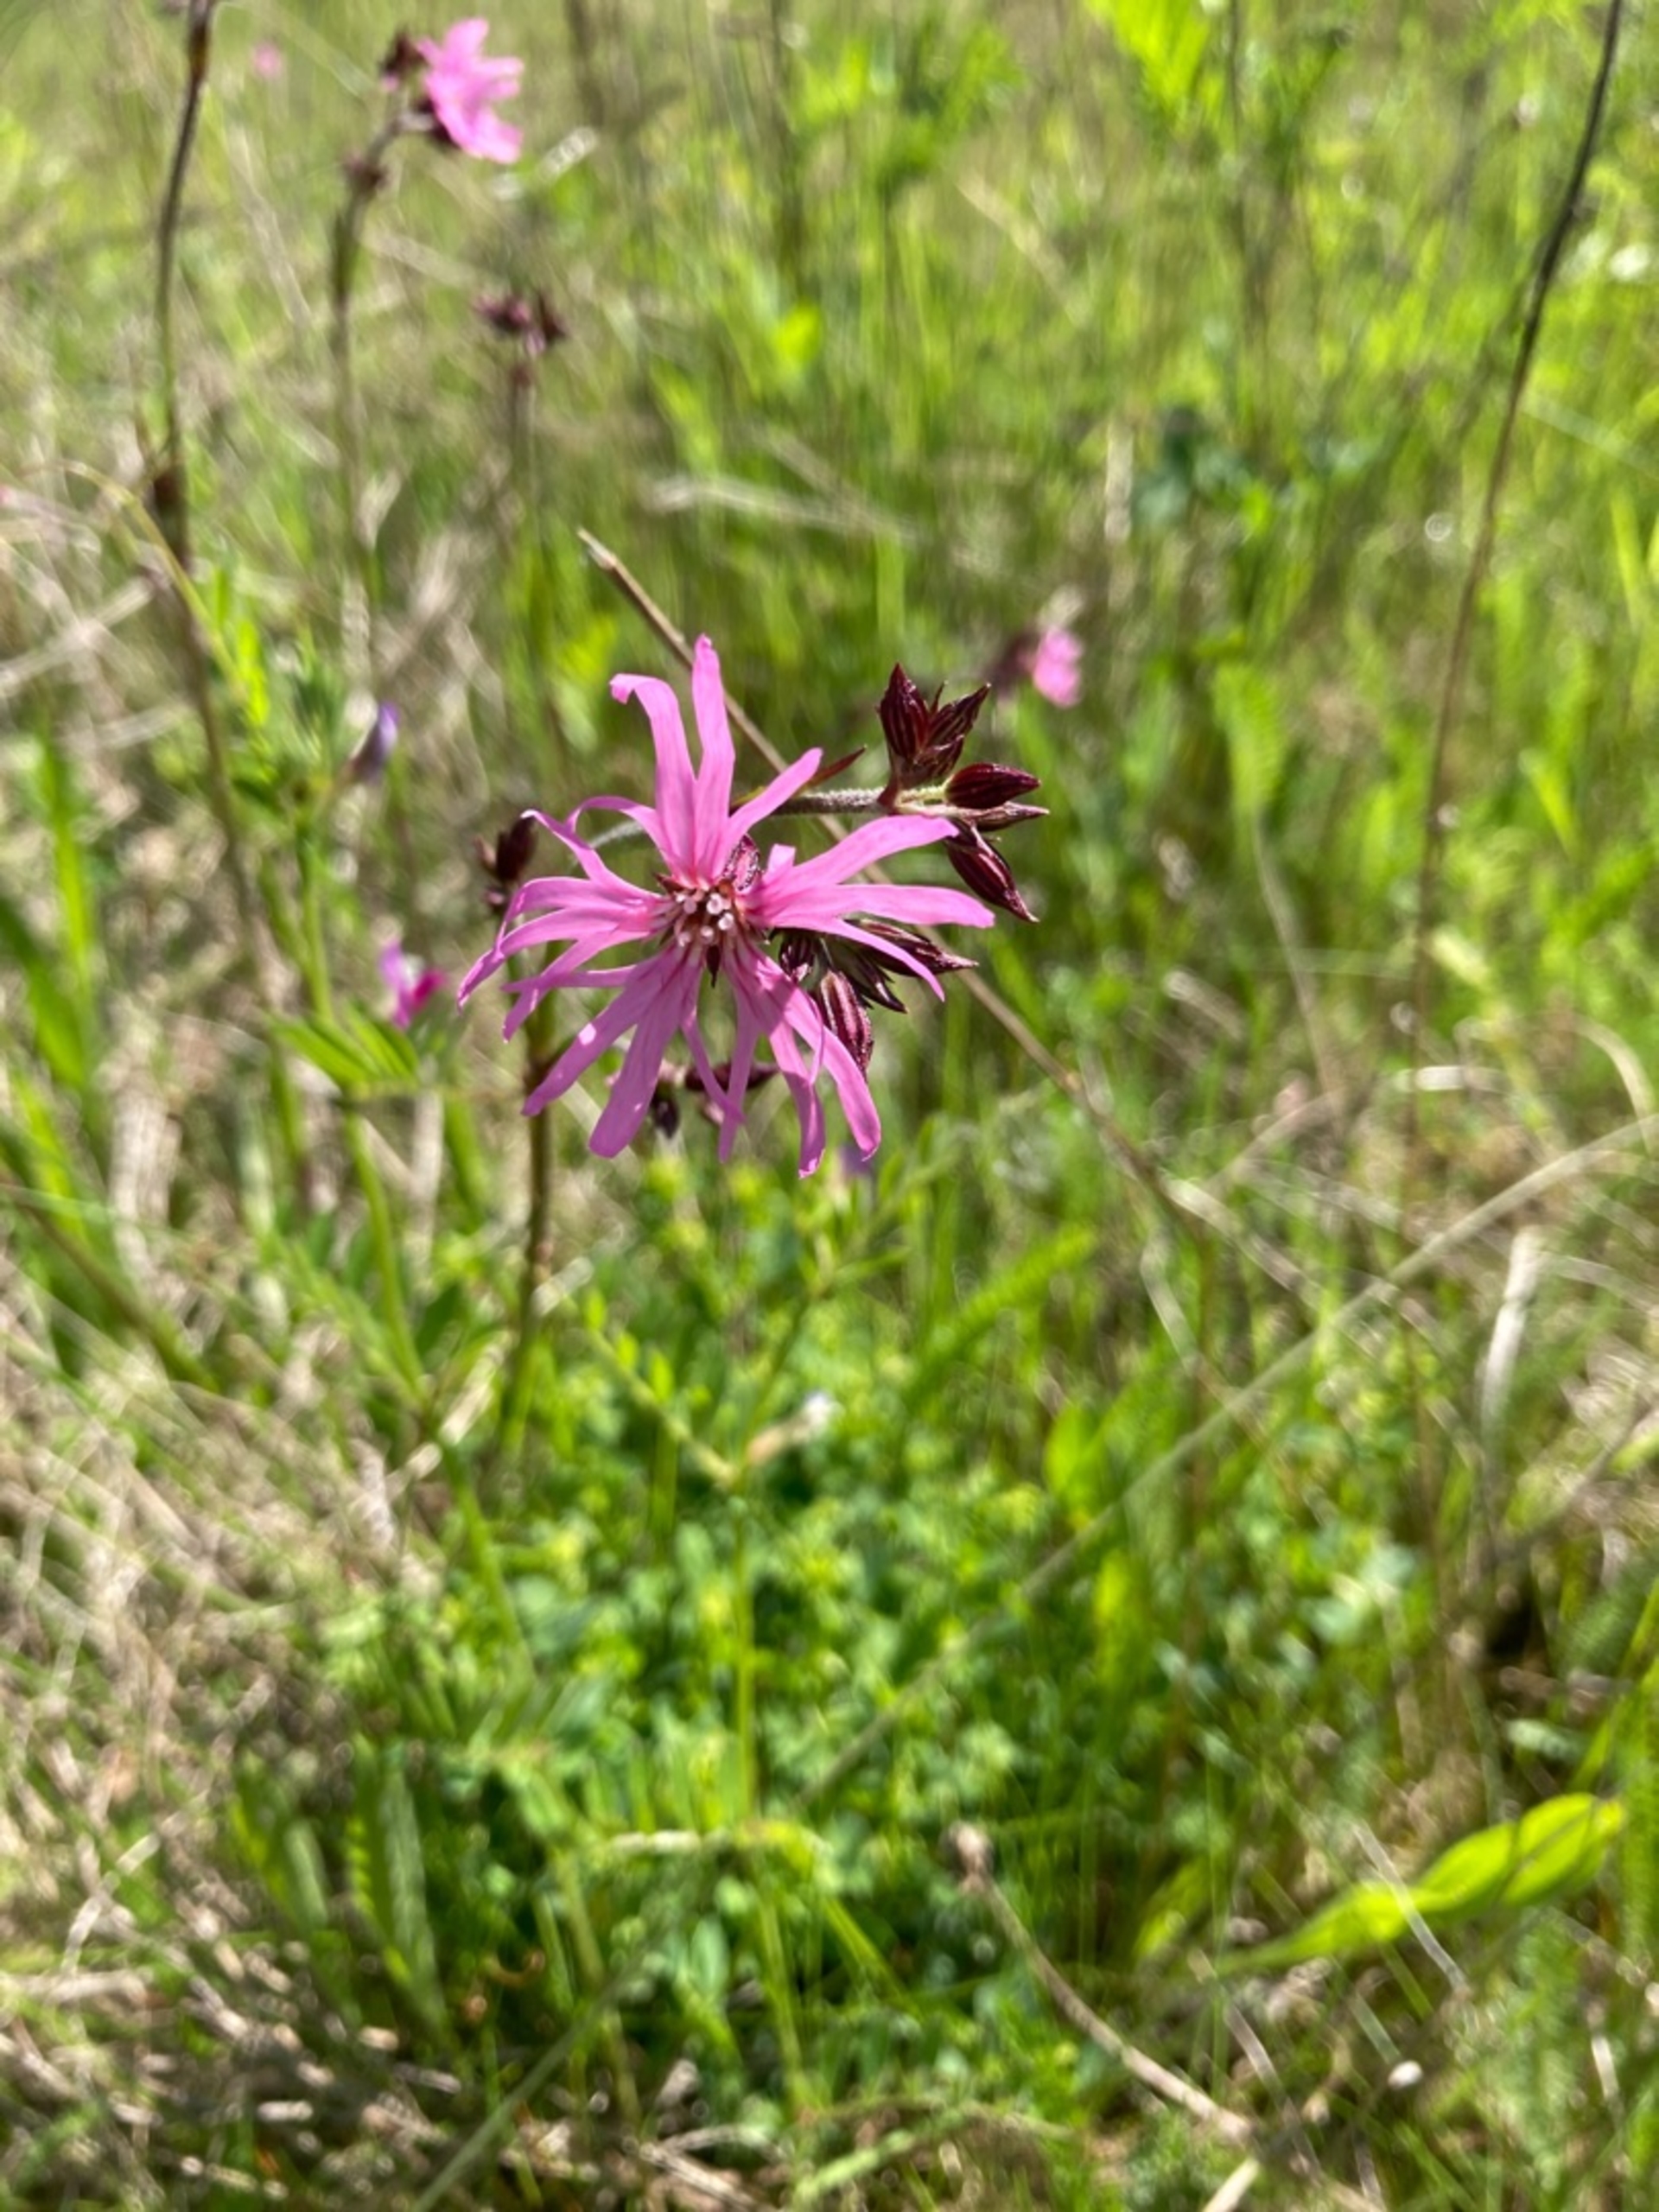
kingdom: Plantae
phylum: Tracheophyta
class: Magnoliopsida
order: Caryophyllales
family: Caryophyllaceae
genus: Silene
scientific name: Silene flos-cuculi
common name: Trævlekrone
